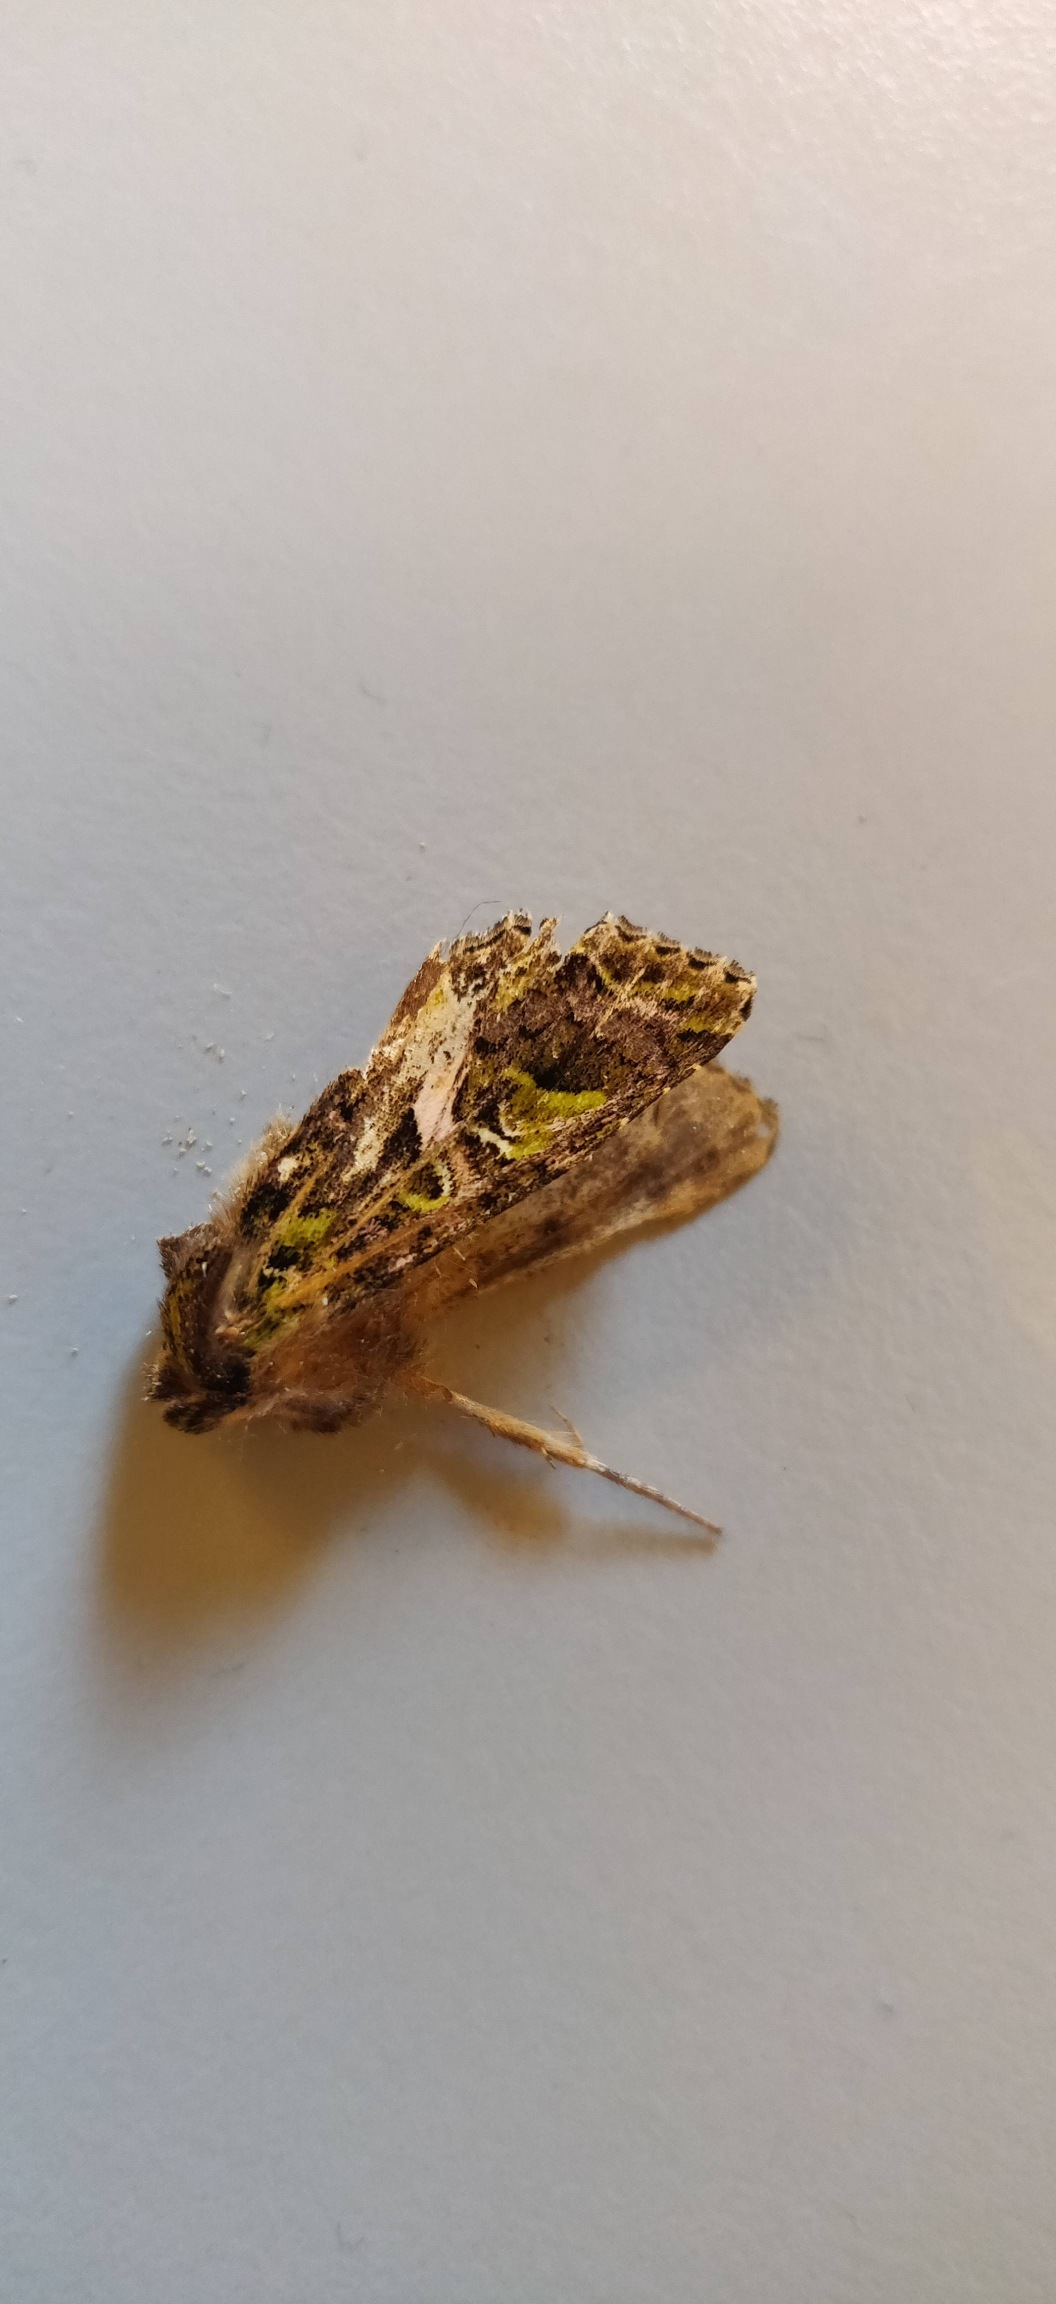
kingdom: Animalia
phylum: Arthropoda
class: Insecta
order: Lepidoptera
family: Noctuidae
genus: Trachea
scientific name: Trachea atriplicis
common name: Mældeugle
